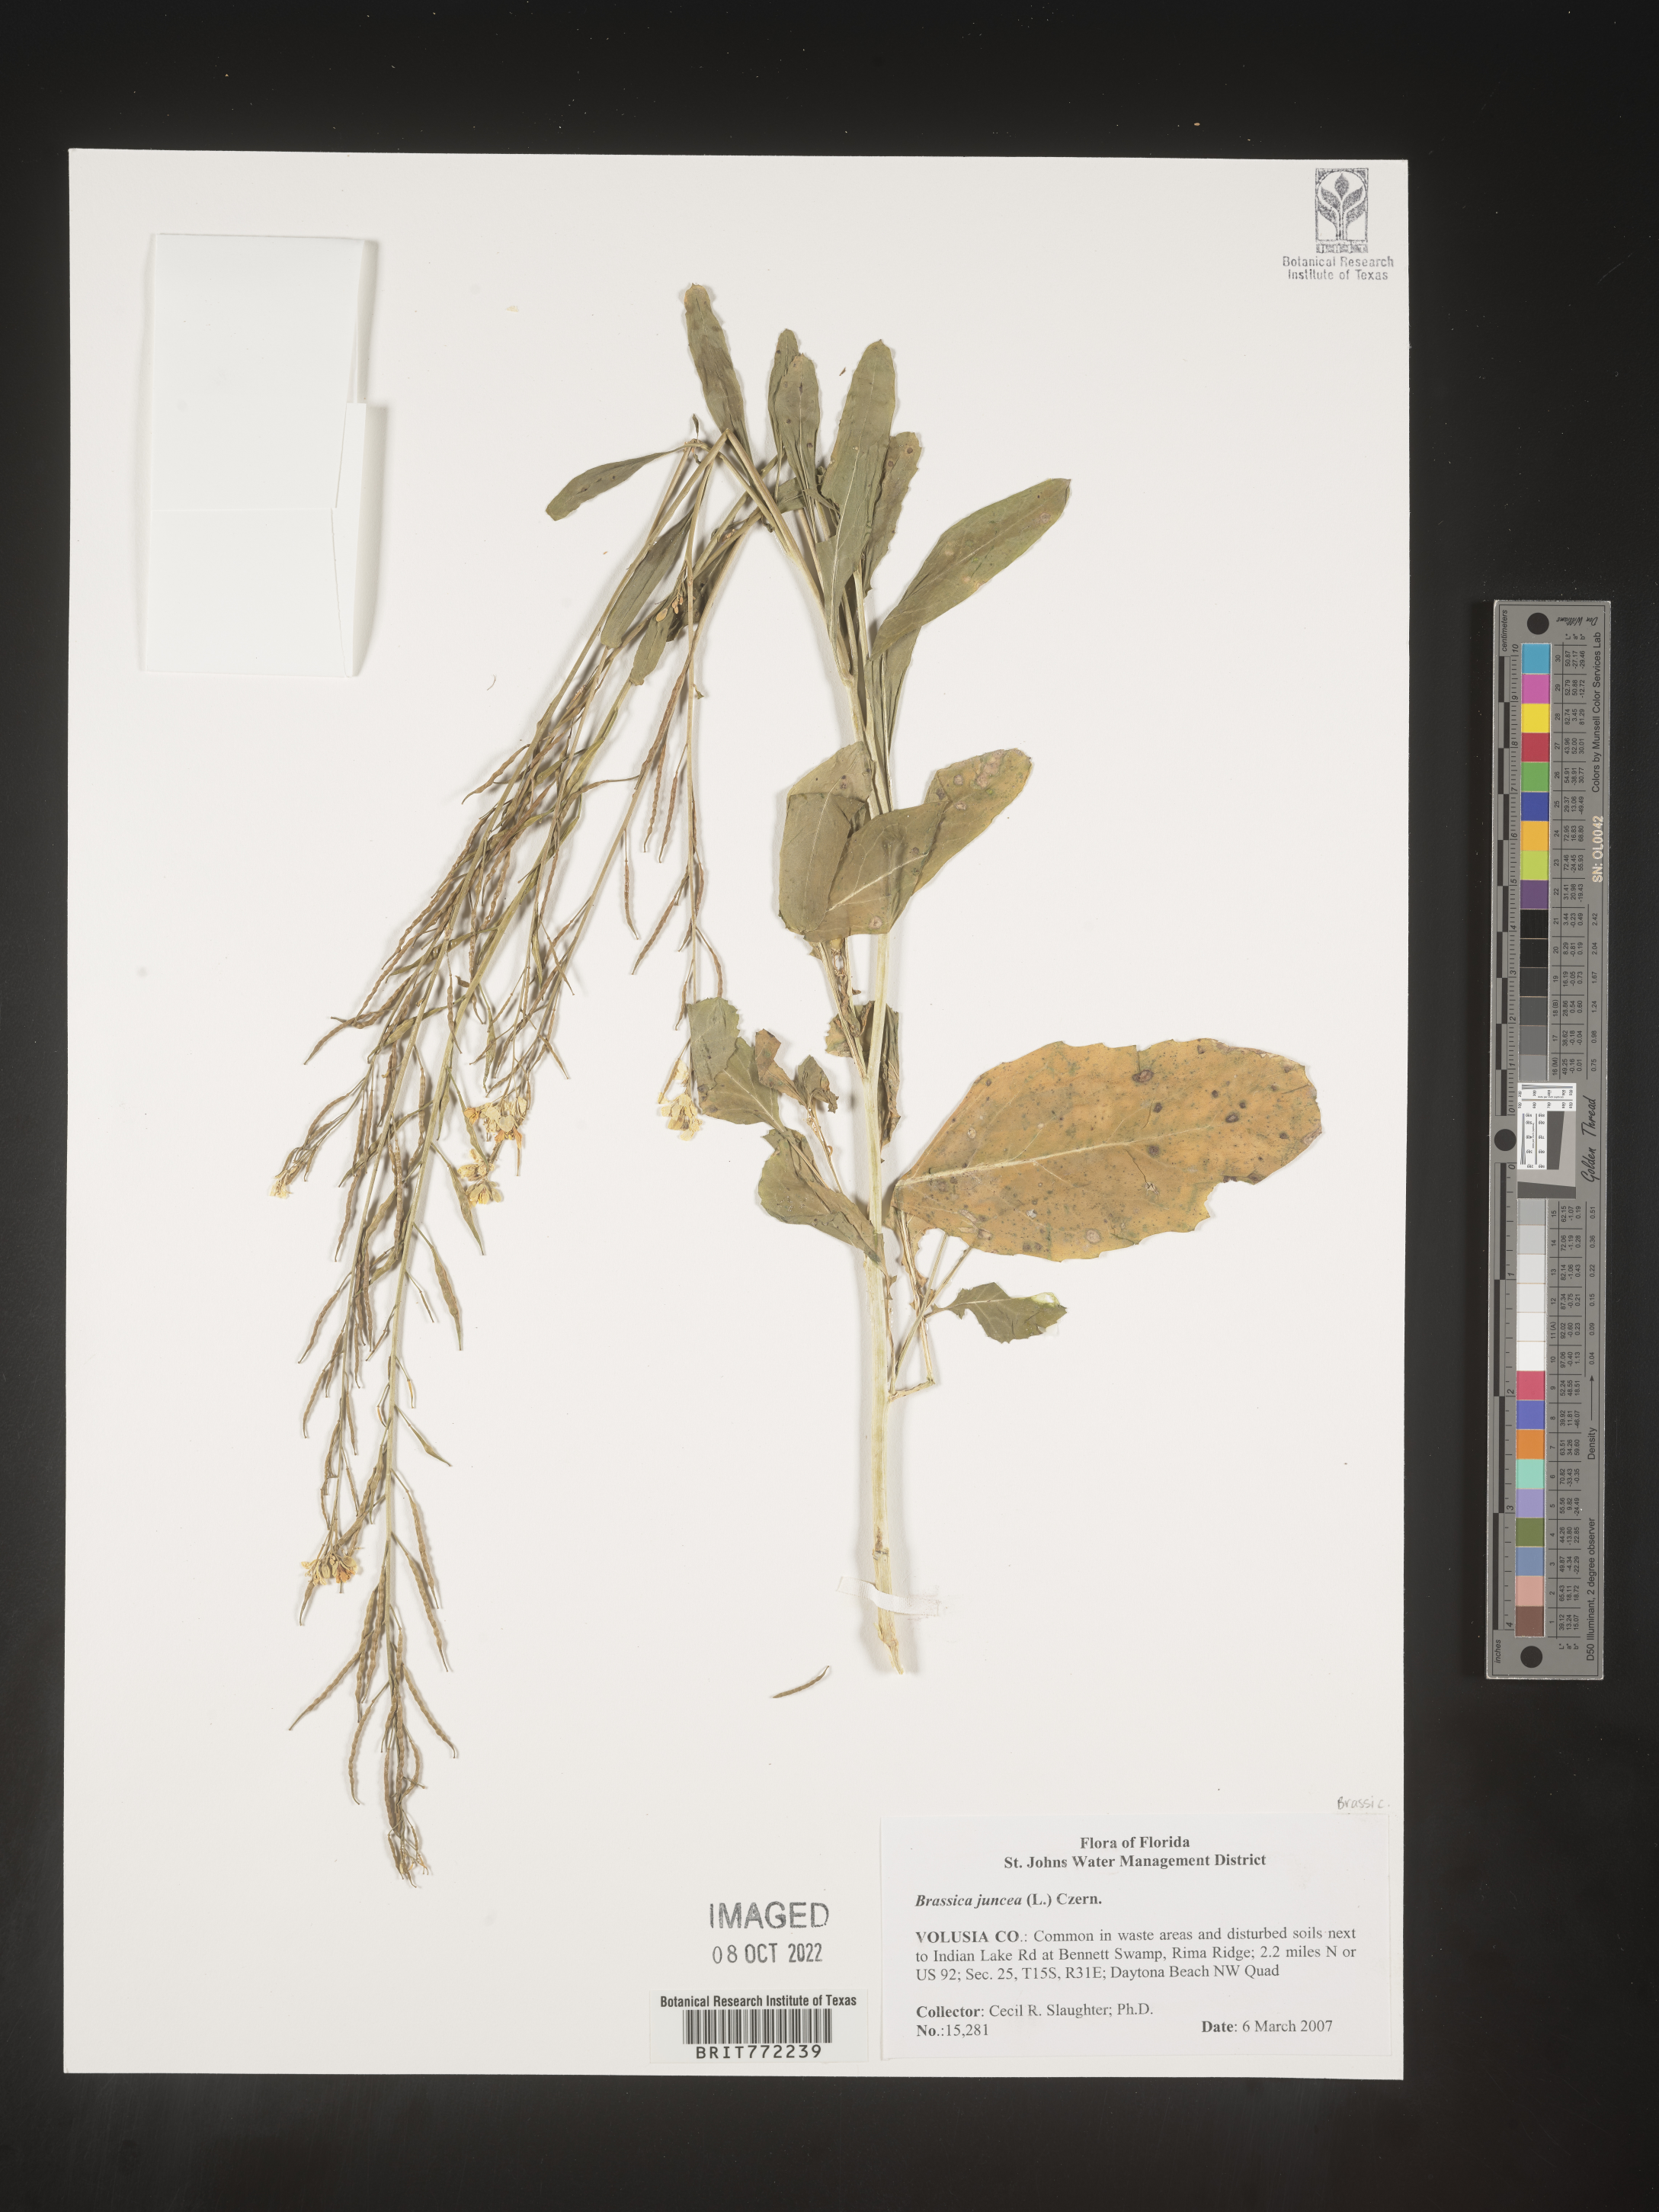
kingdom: Plantae
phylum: Tracheophyta
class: Magnoliopsida
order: Brassicales
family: Brassicaceae
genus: Brassica
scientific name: Brassica juncea
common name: Brown mustard
